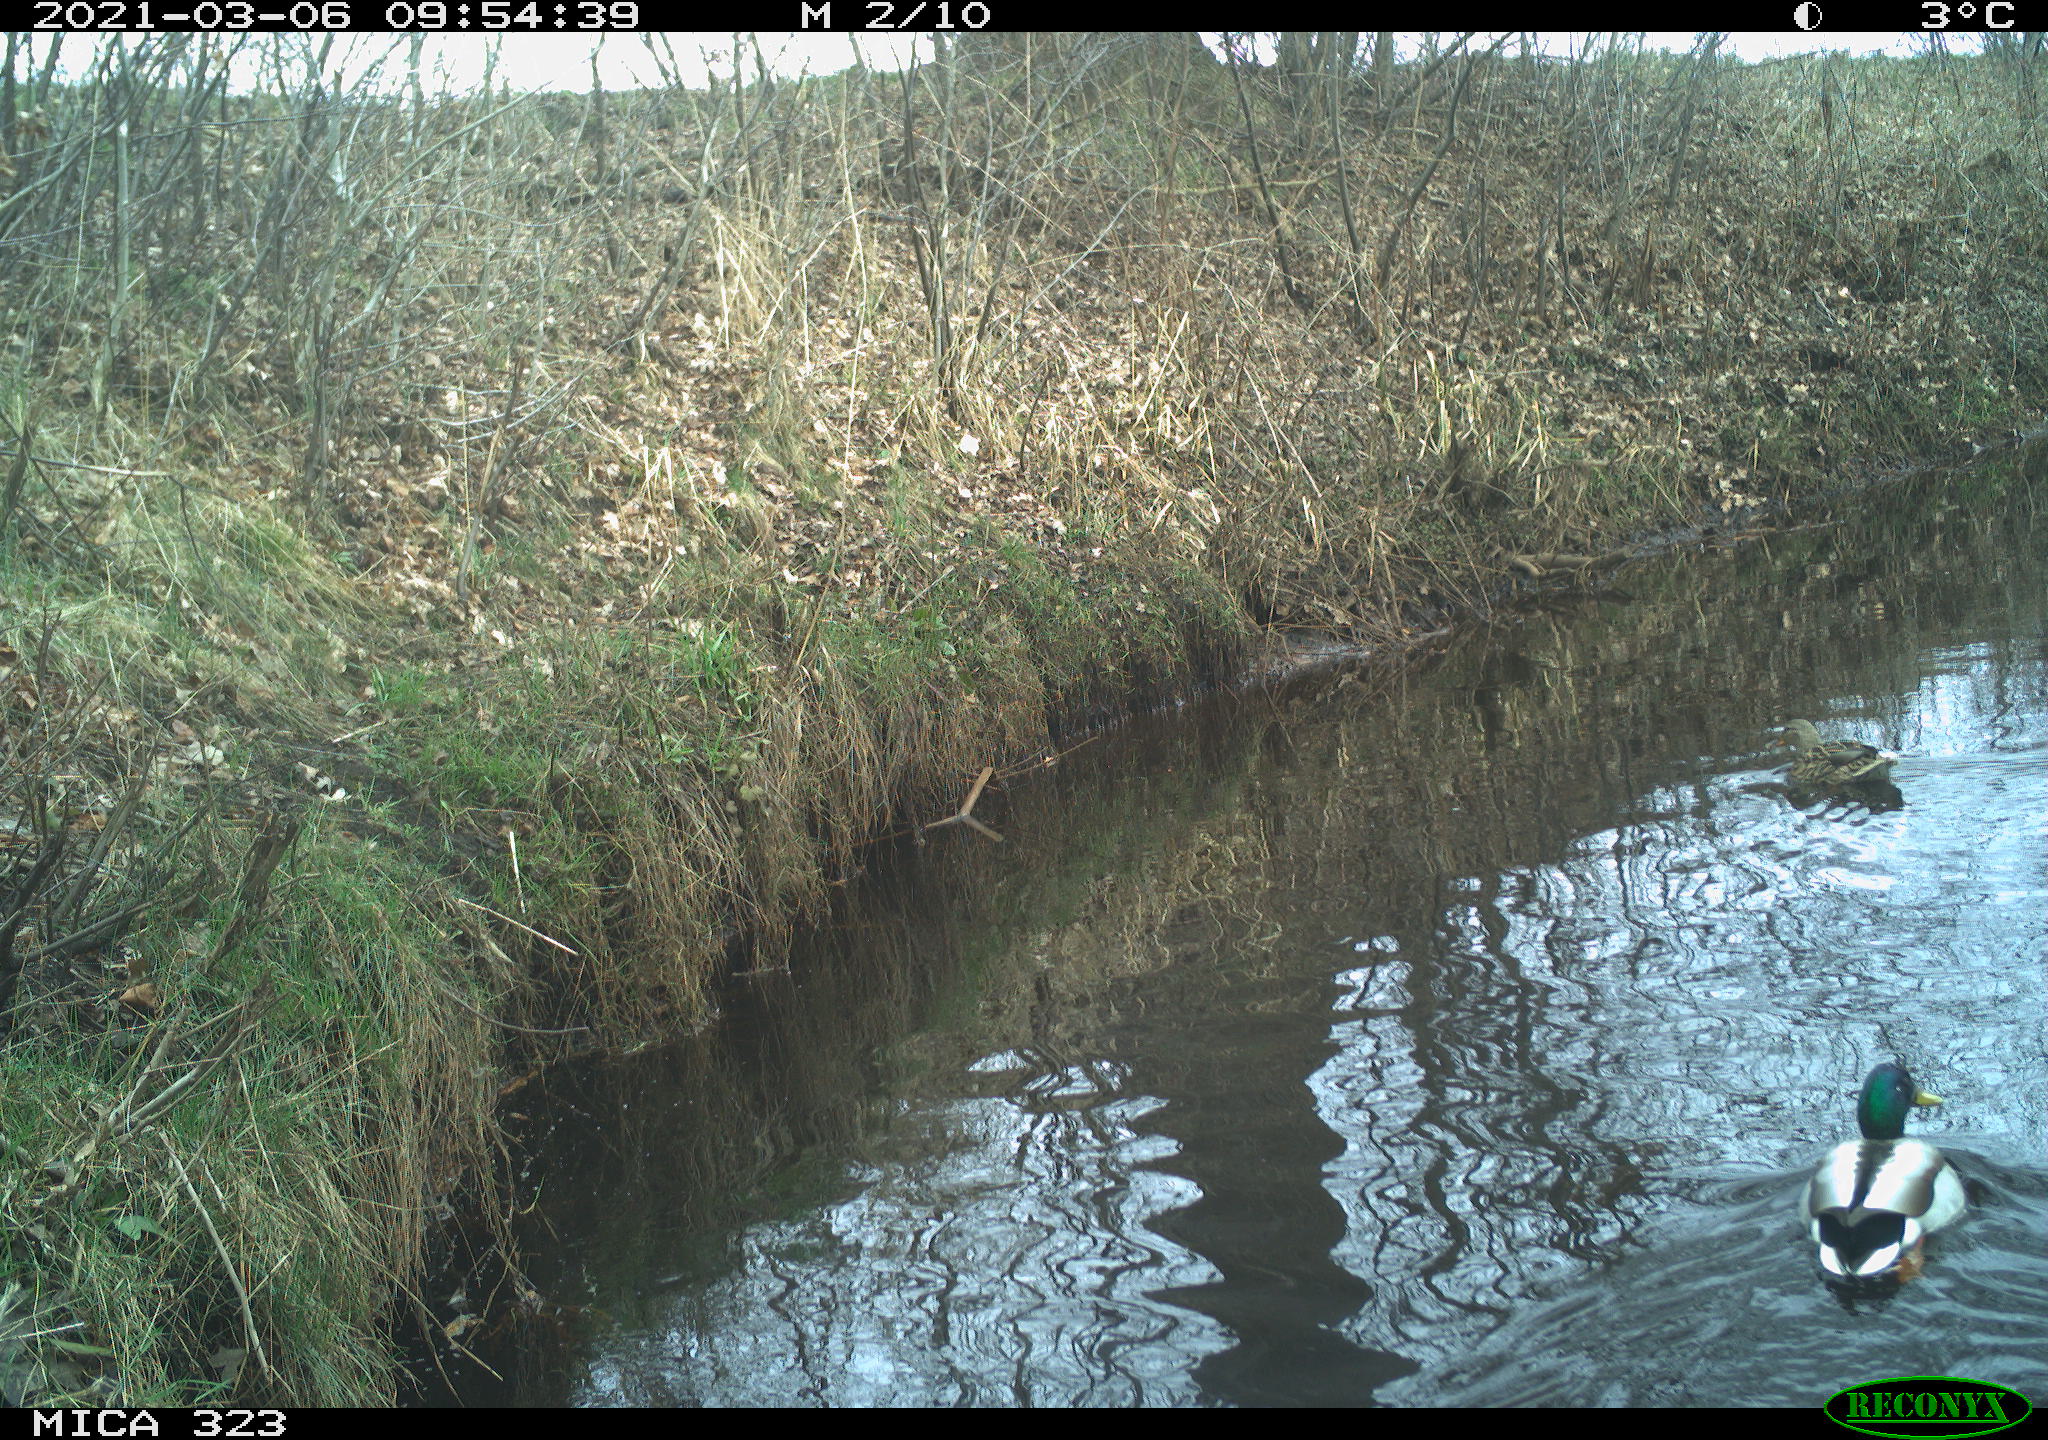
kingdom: Animalia
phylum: Chordata
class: Aves
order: Anseriformes
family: Anatidae
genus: Anas
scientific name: Anas platyrhynchos
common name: Mallard
